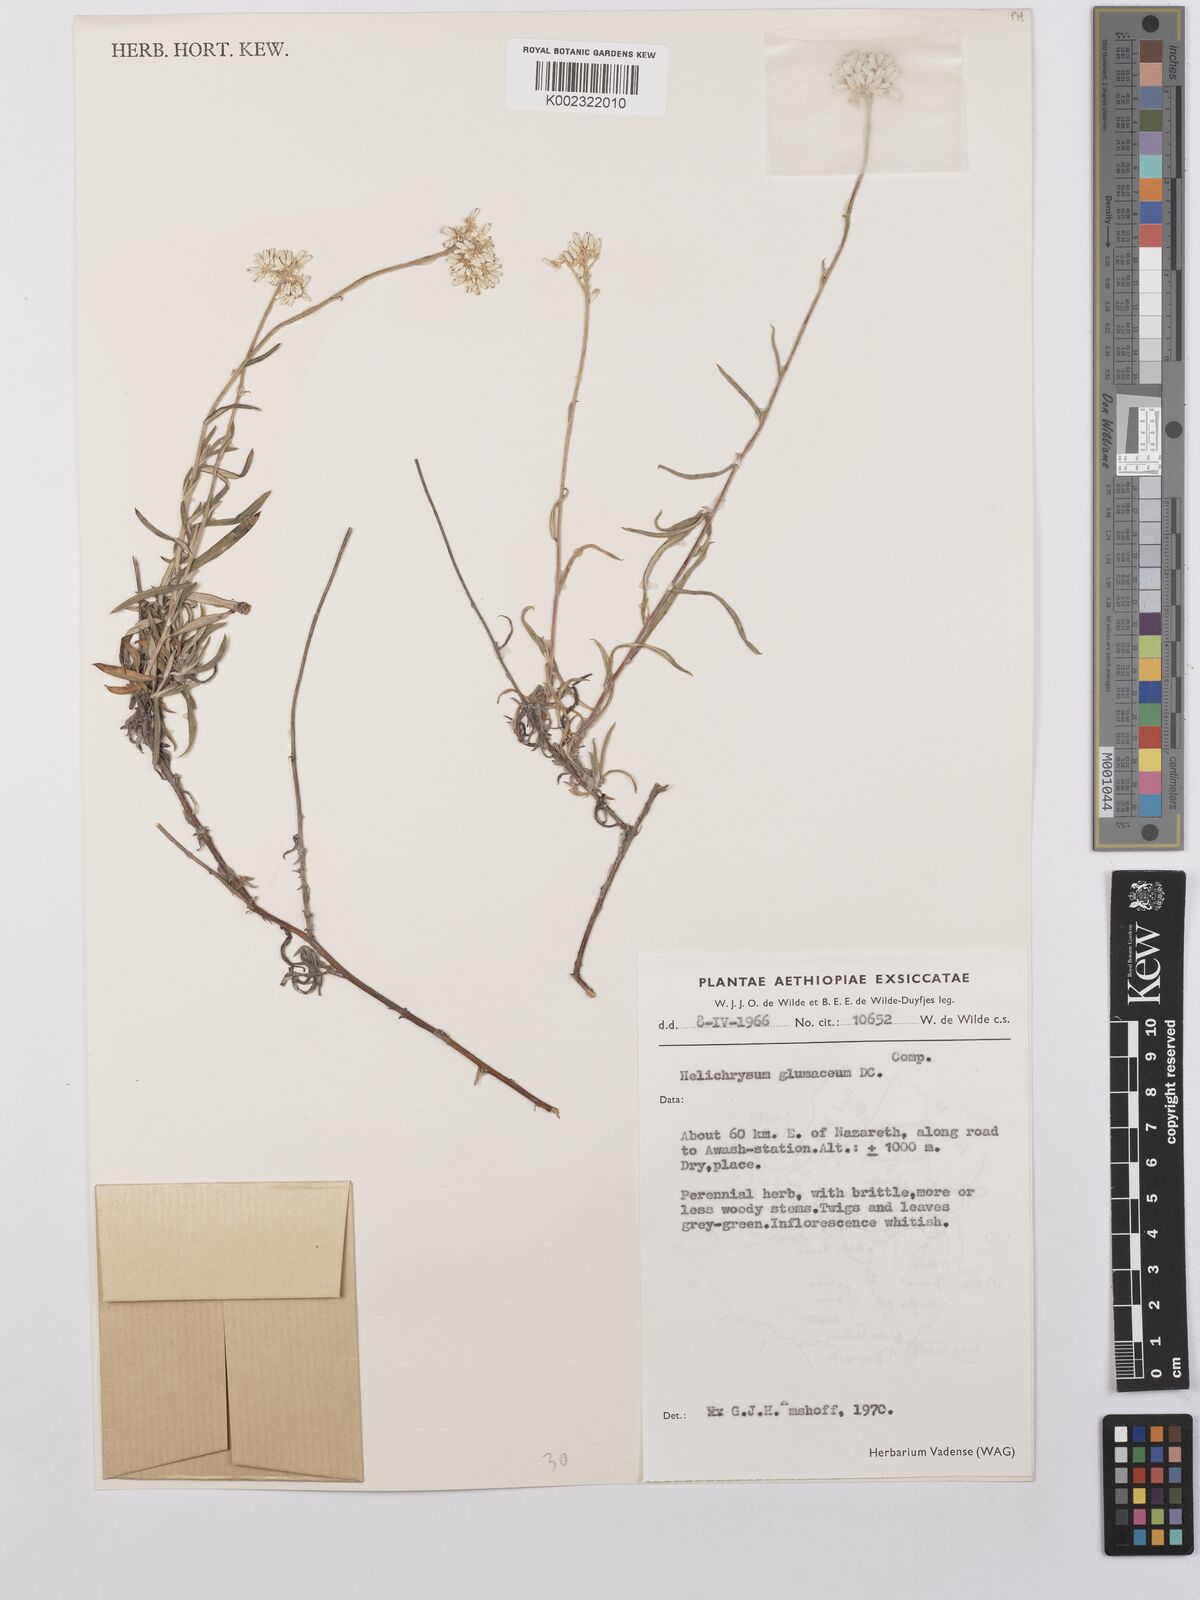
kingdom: Plantae
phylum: Tracheophyta
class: Magnoliopsida
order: Asterales
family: Asteraceae
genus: Helichrysum
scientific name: Helichrysum glumaceum
